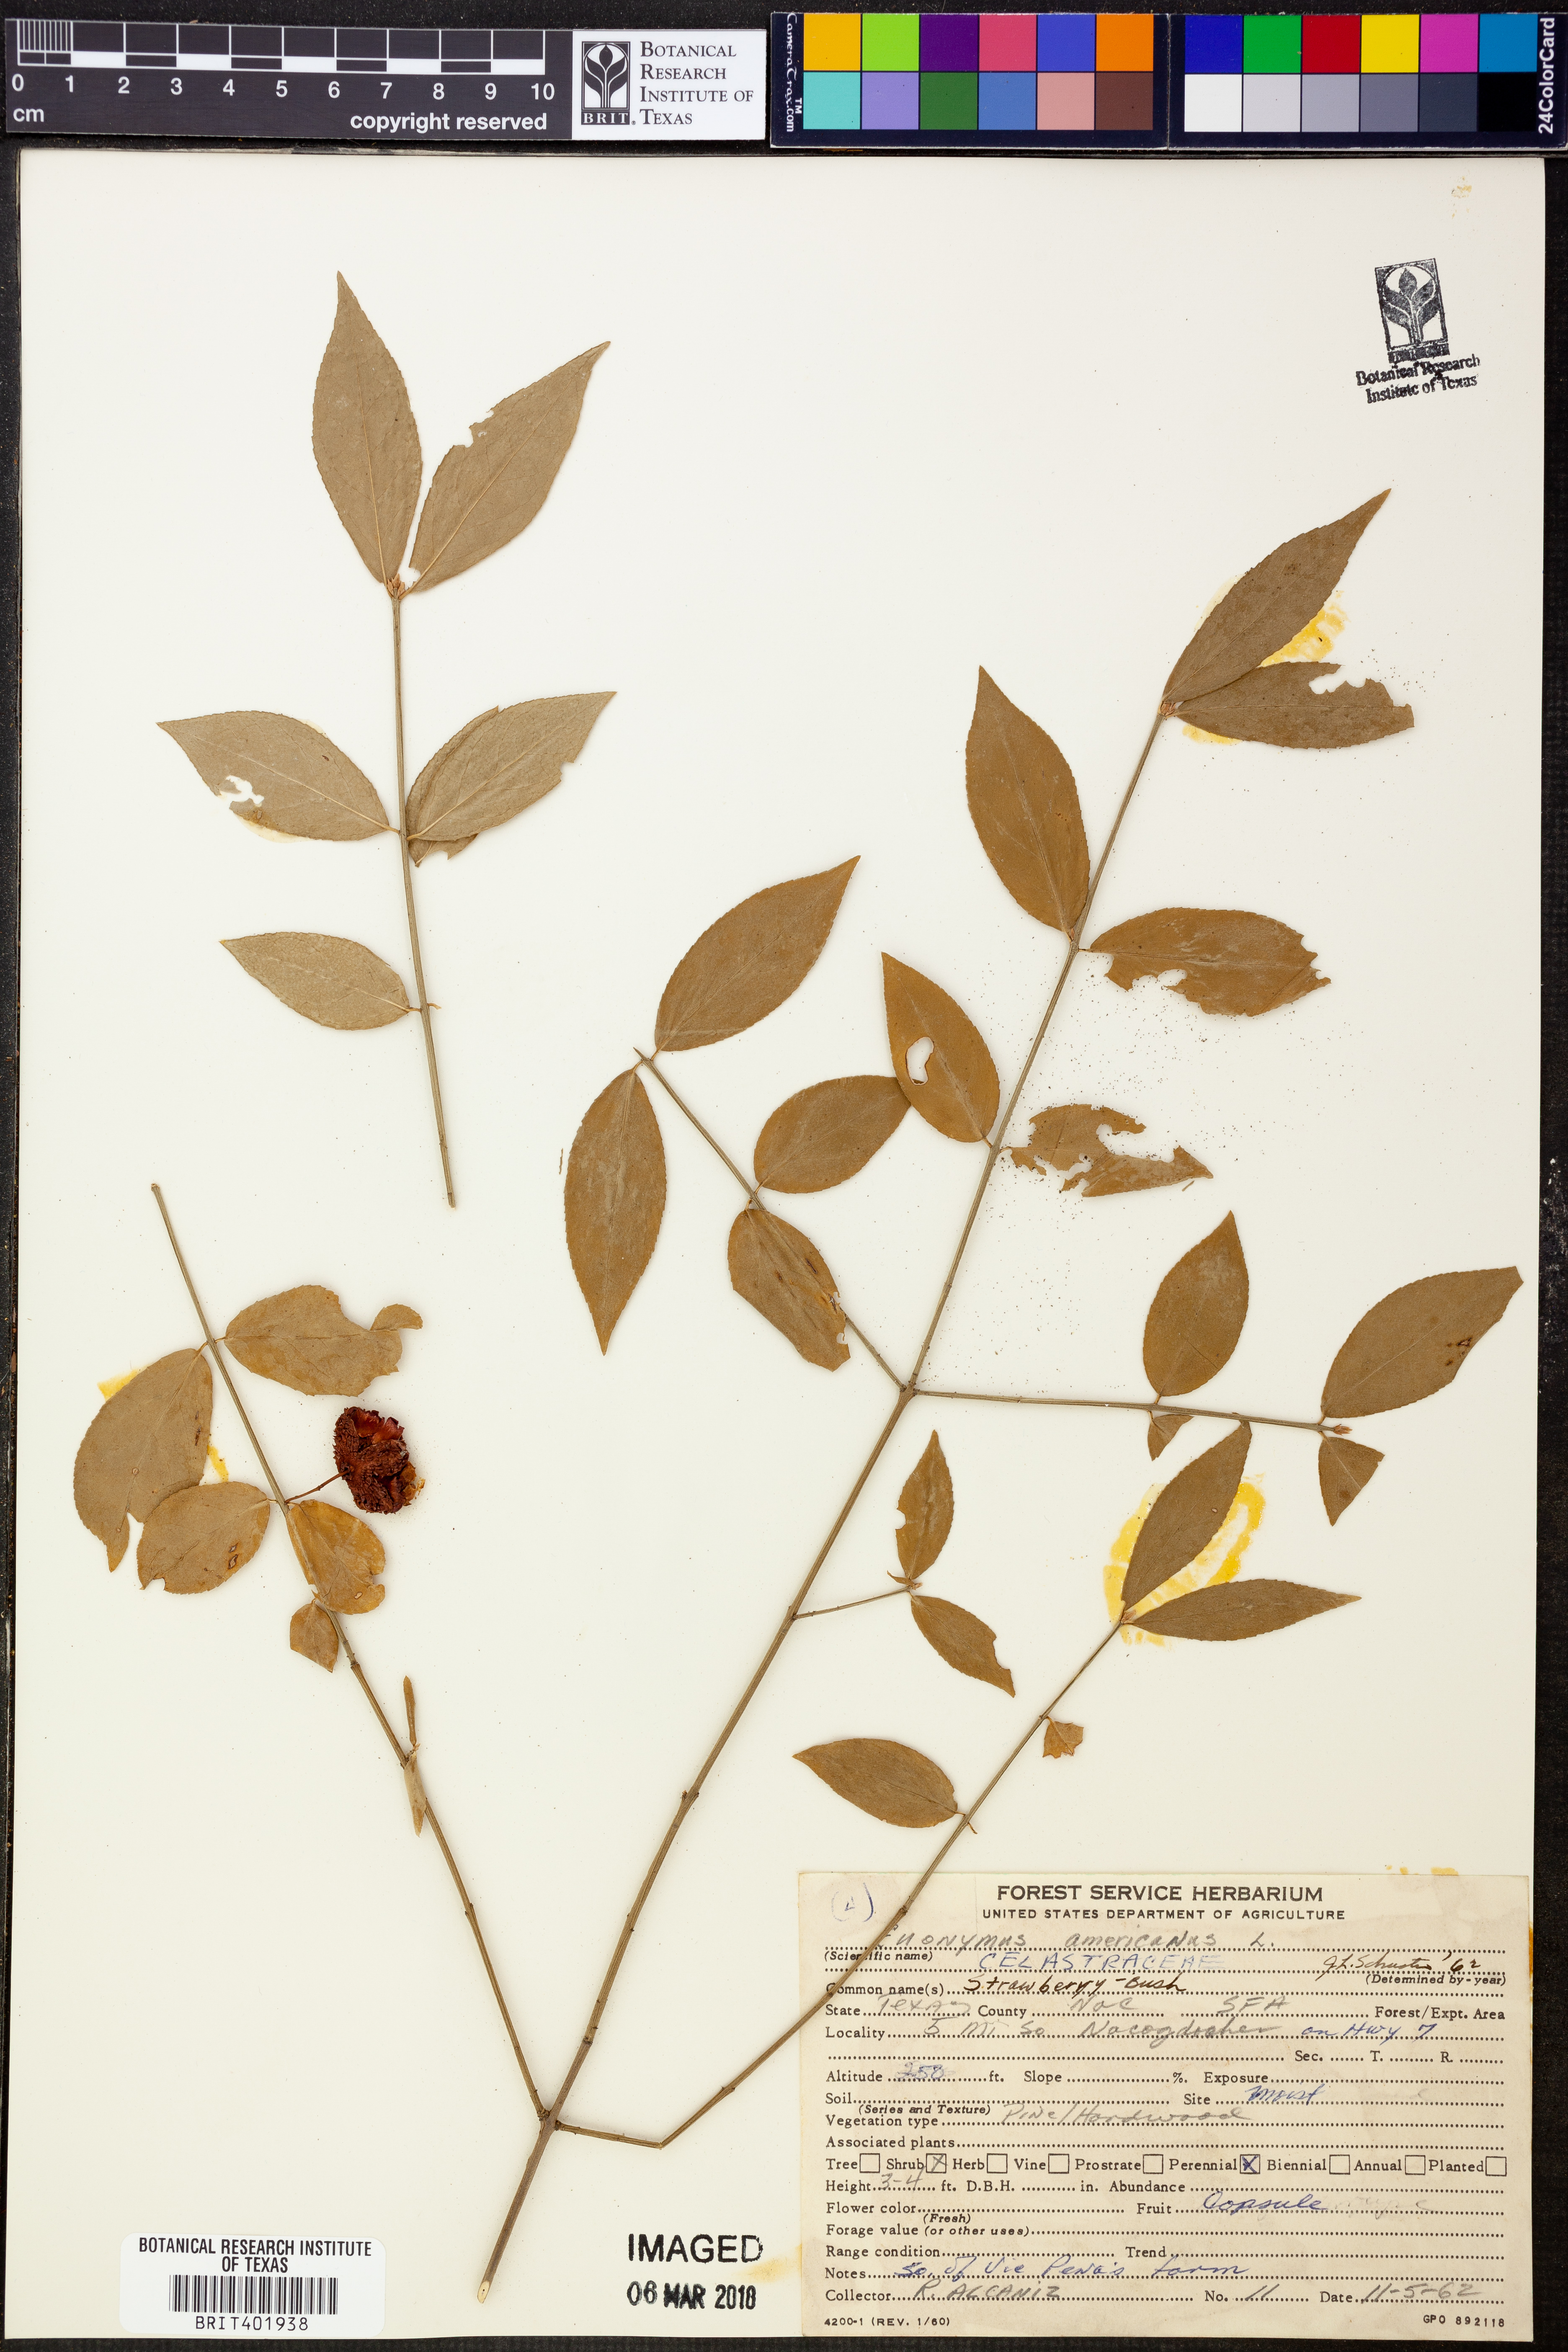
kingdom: Plantae
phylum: Tracheophyta
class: Magnoliopsida
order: Celastrales
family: Celastraceae
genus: Euonymus
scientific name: Euonymus americanus
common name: Bursting-heart
